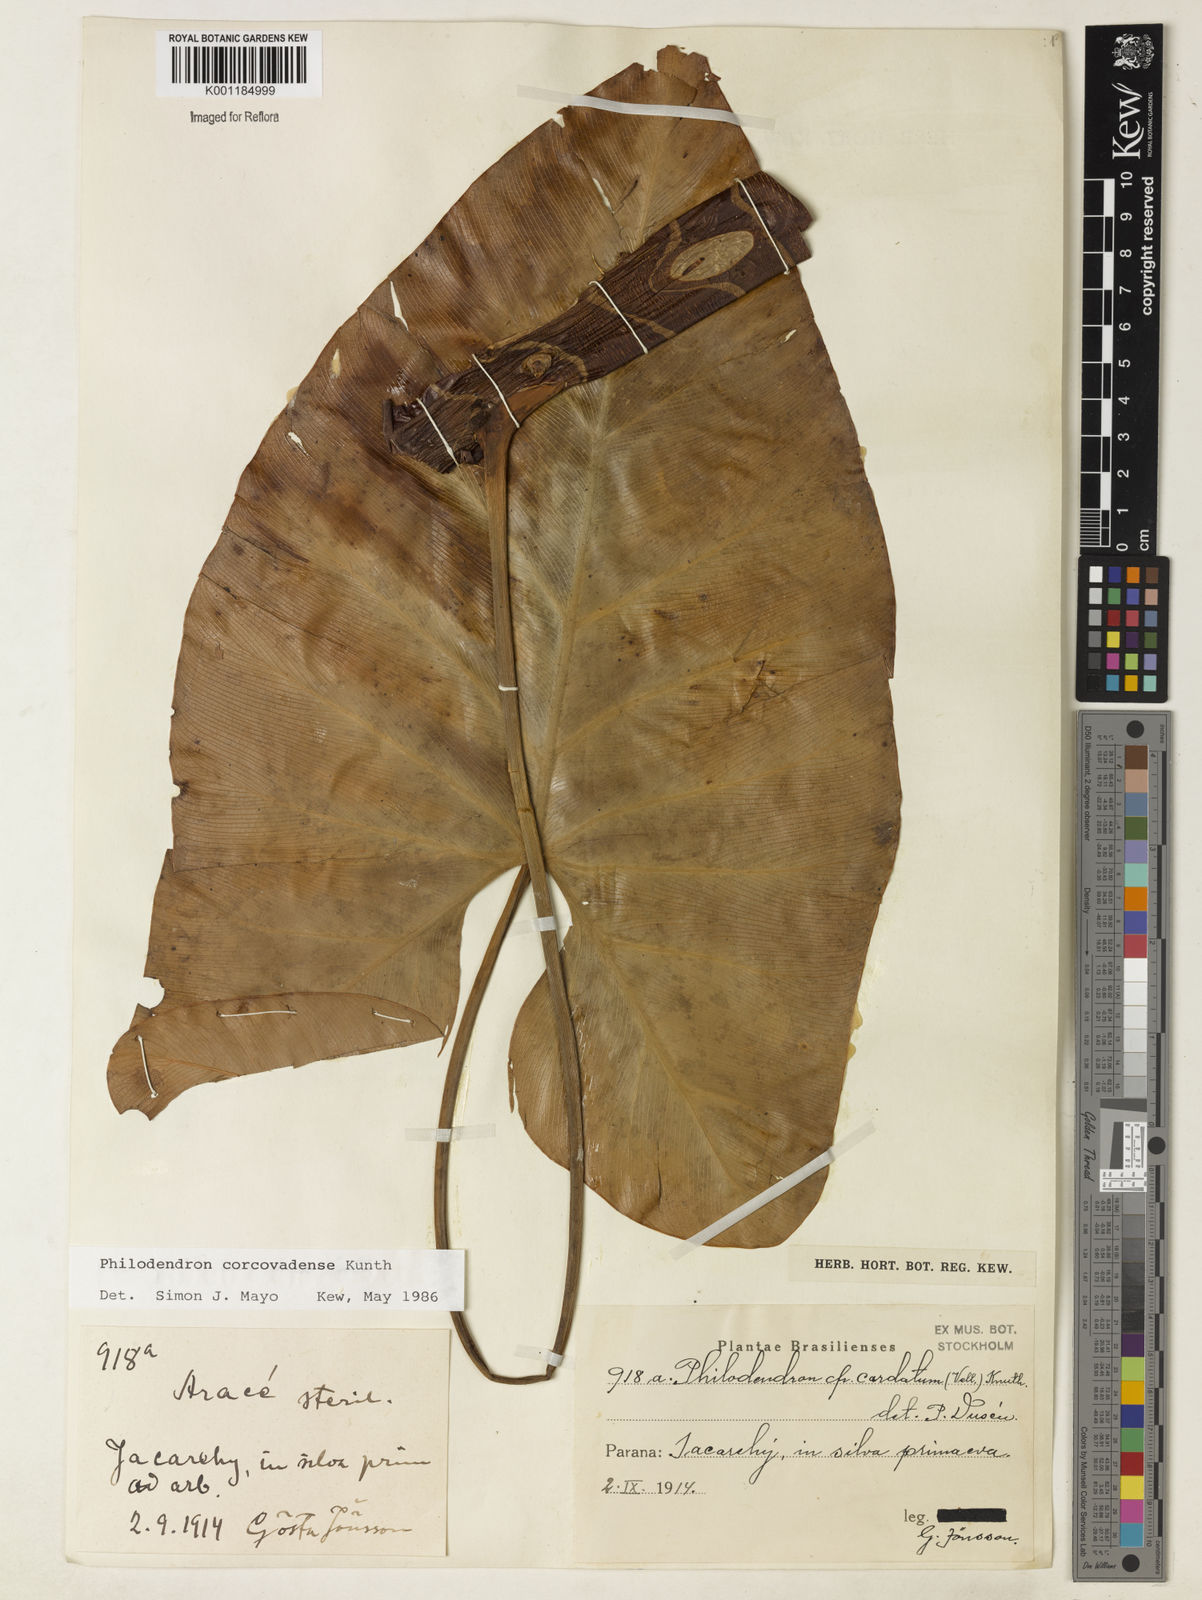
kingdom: Plantae
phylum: Tracheophyta
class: Liliopsida
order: Alismatales
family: Araceae
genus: Thaumatophyllum
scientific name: Thaumatophyllum corcovadense
